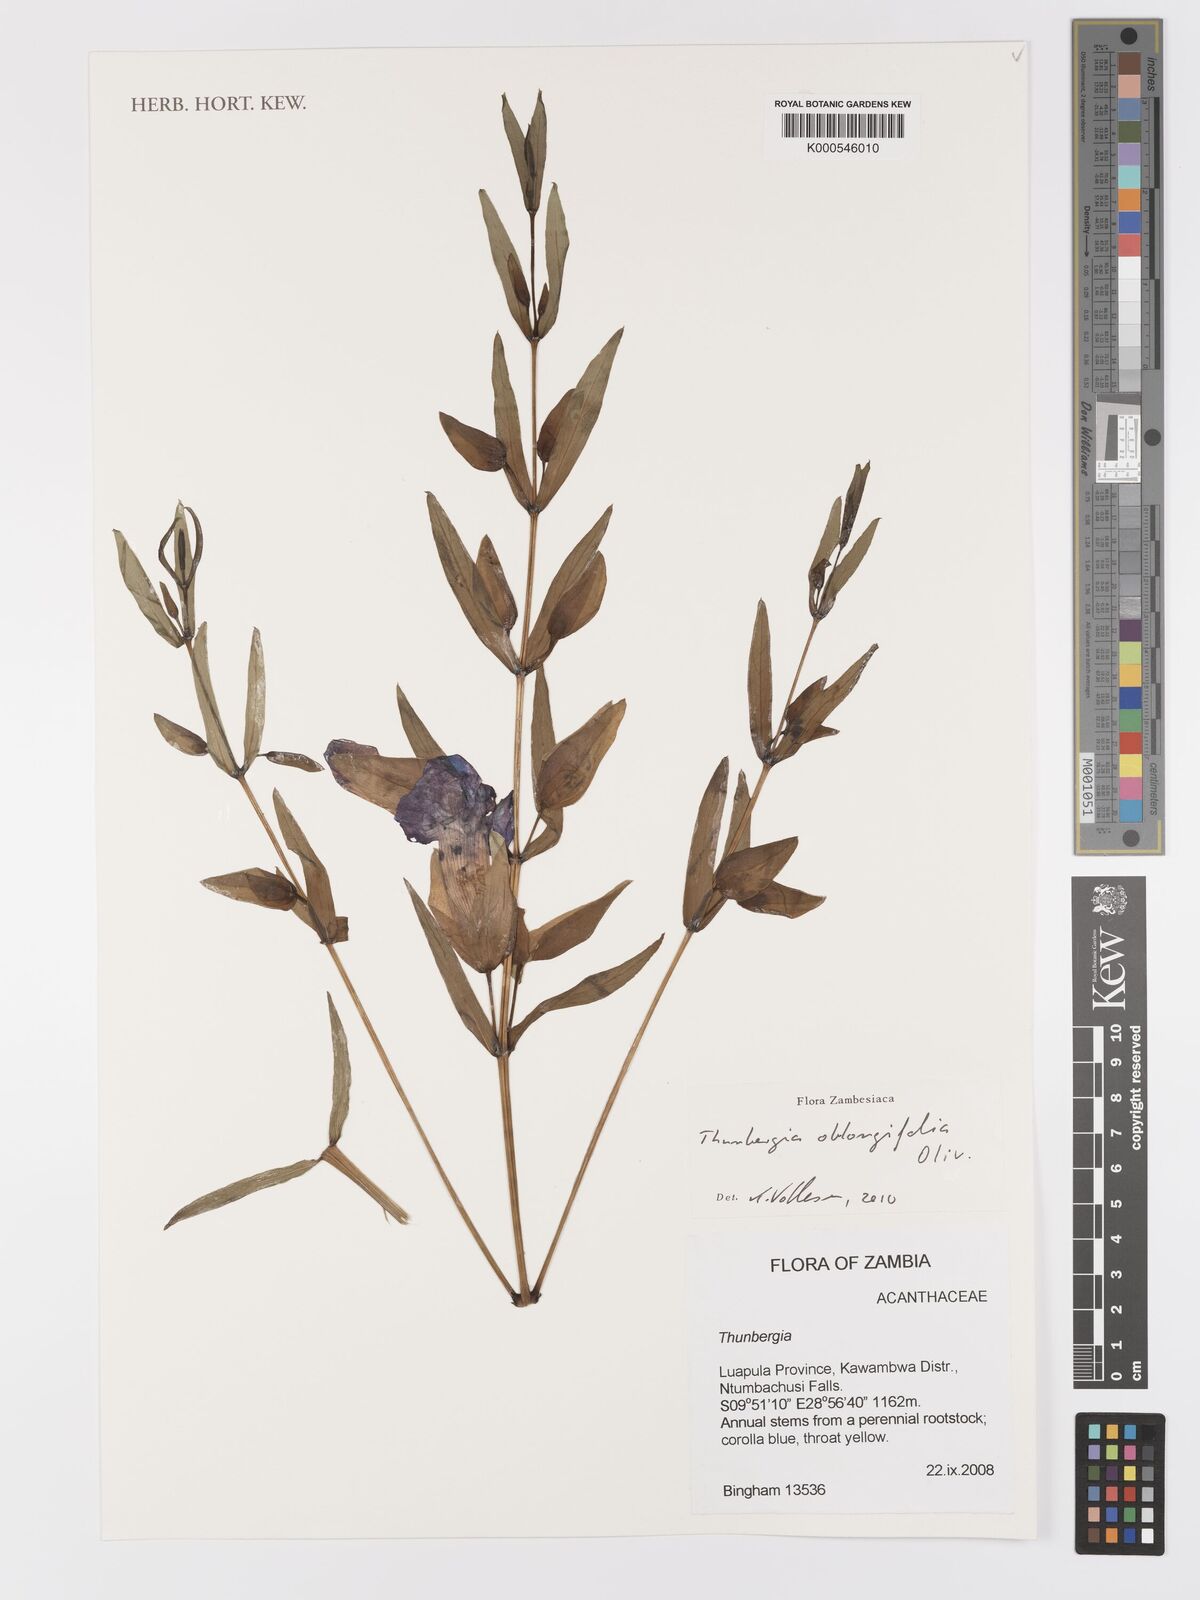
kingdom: Plantae
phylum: Tracheophyta
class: Magnoliopsida
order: Lamiales
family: Acanthaceae
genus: Thunbergia
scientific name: Thunbergia oblongifolia
